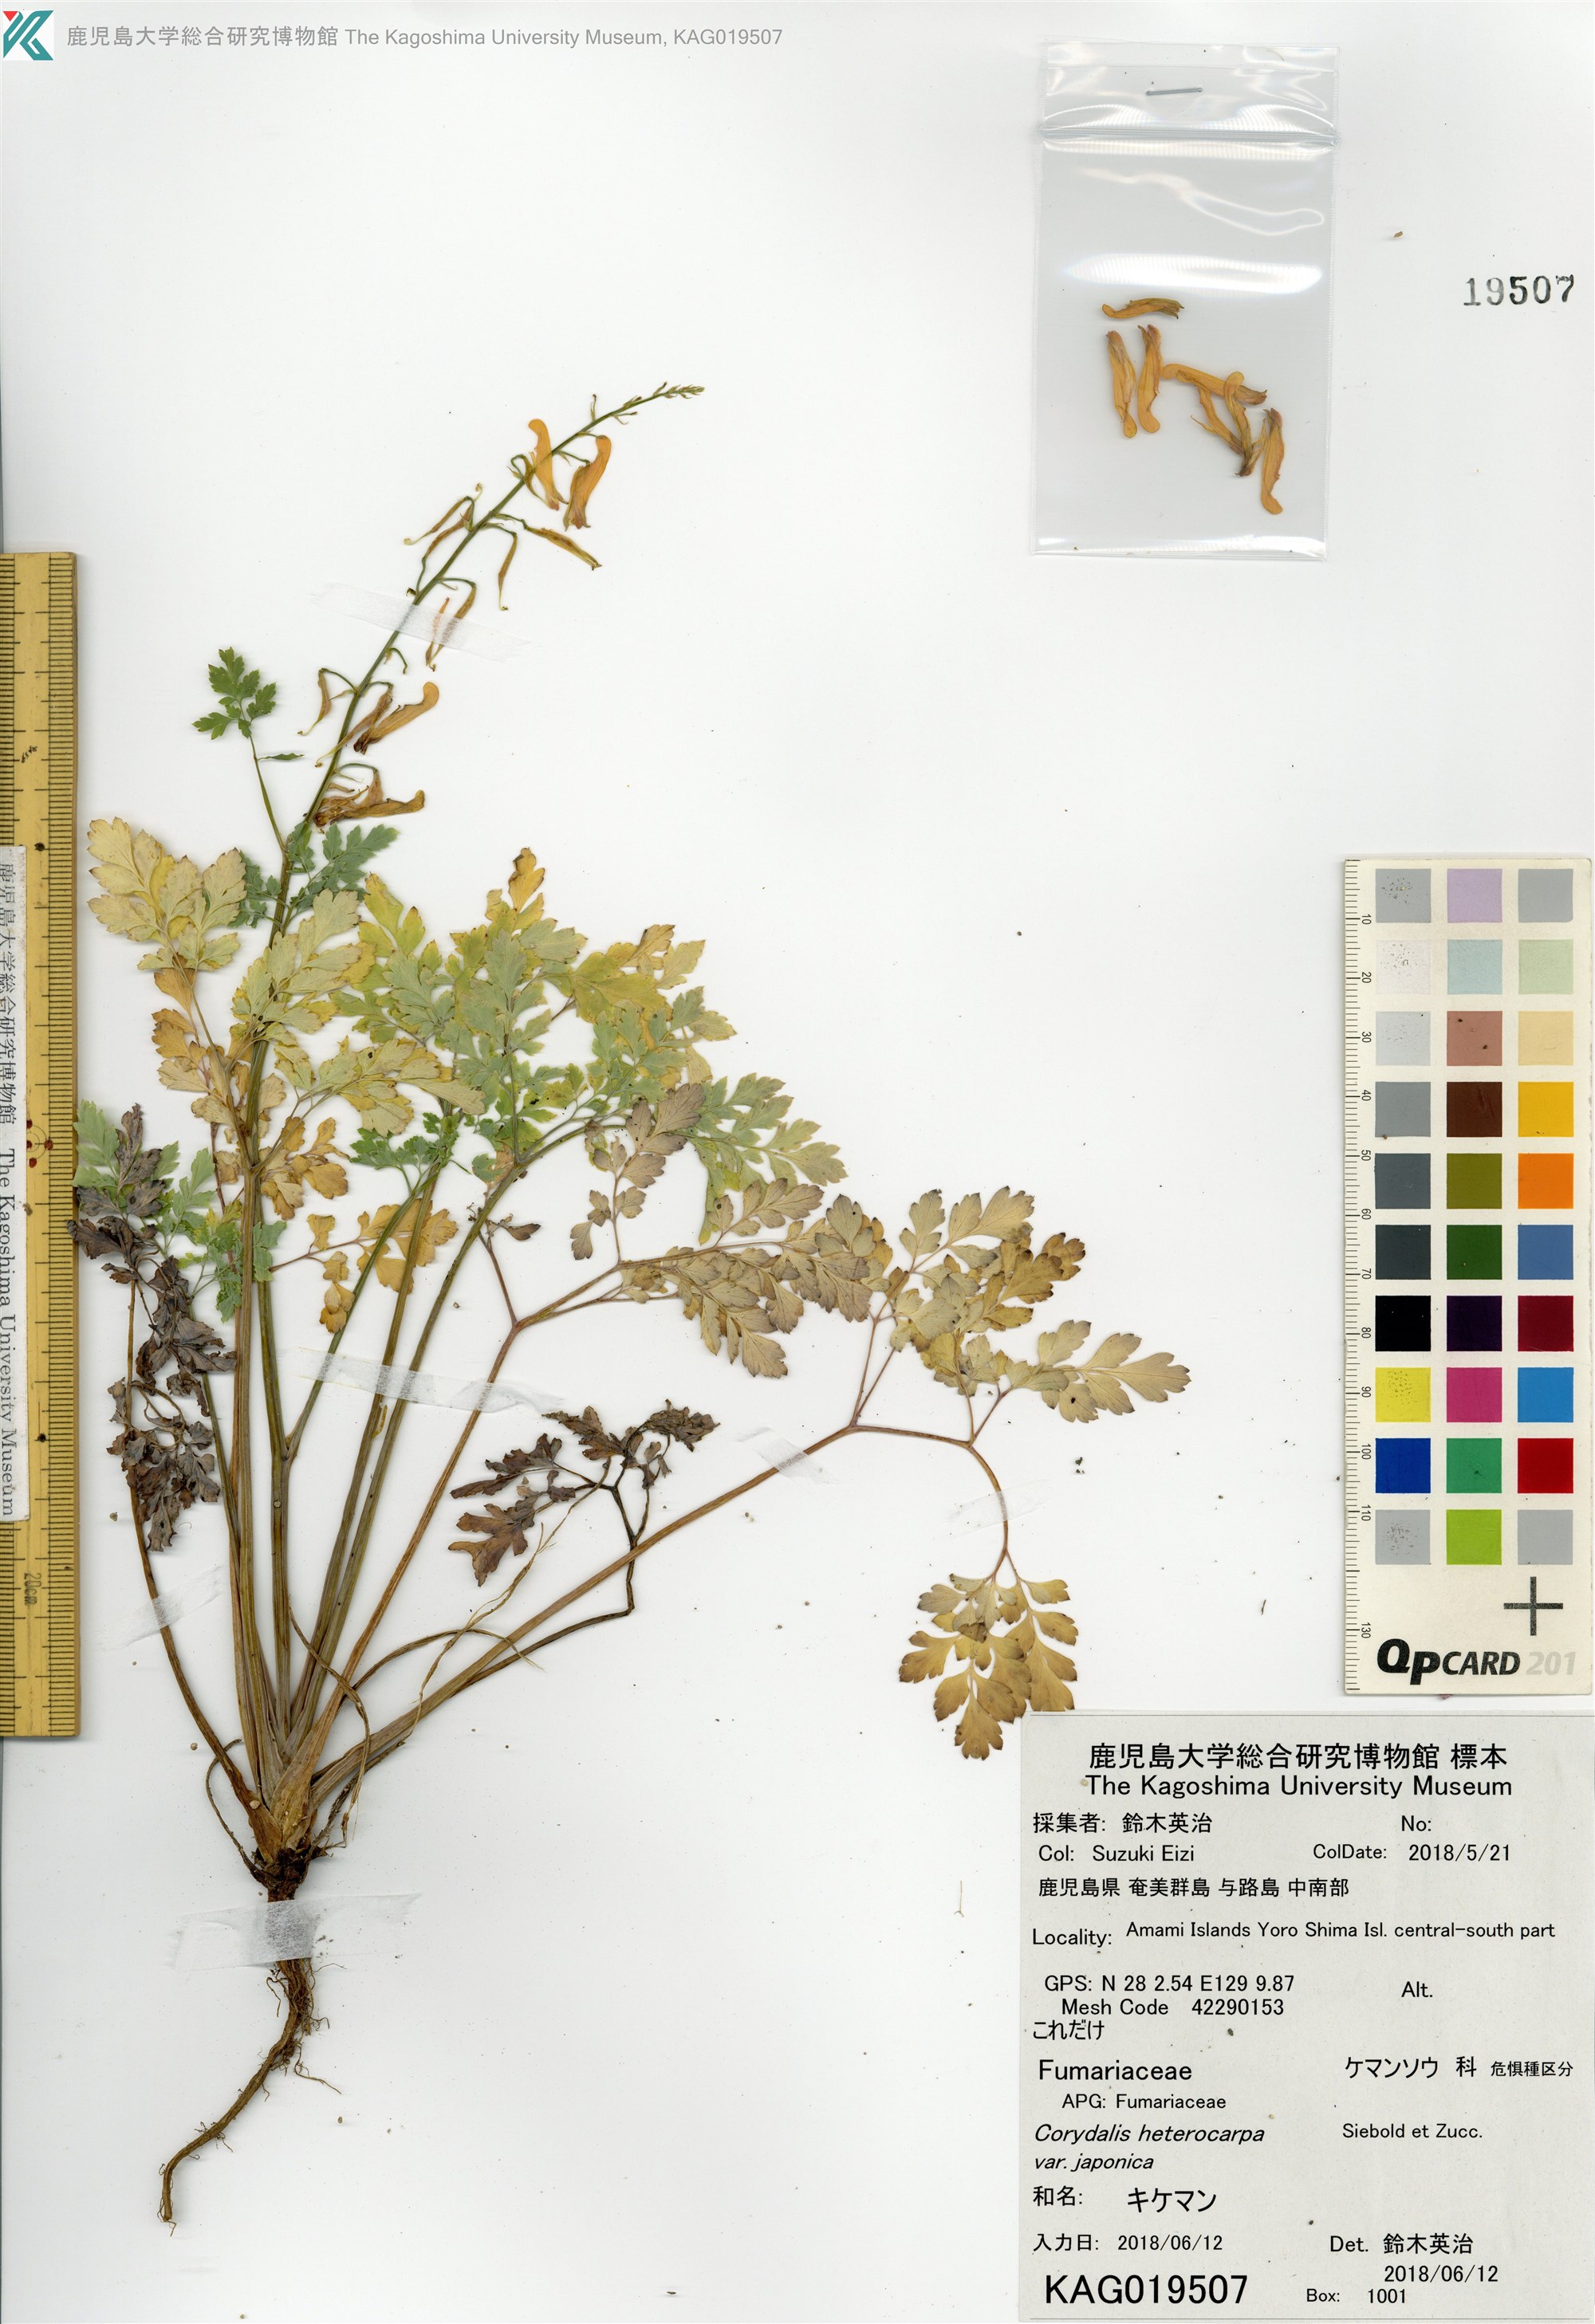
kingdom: Plantae
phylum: Tracheophyta
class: Magnoliopsida
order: Ranunculales
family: Papaveraceae
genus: Corydalis
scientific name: Corydalis heterocarpa
